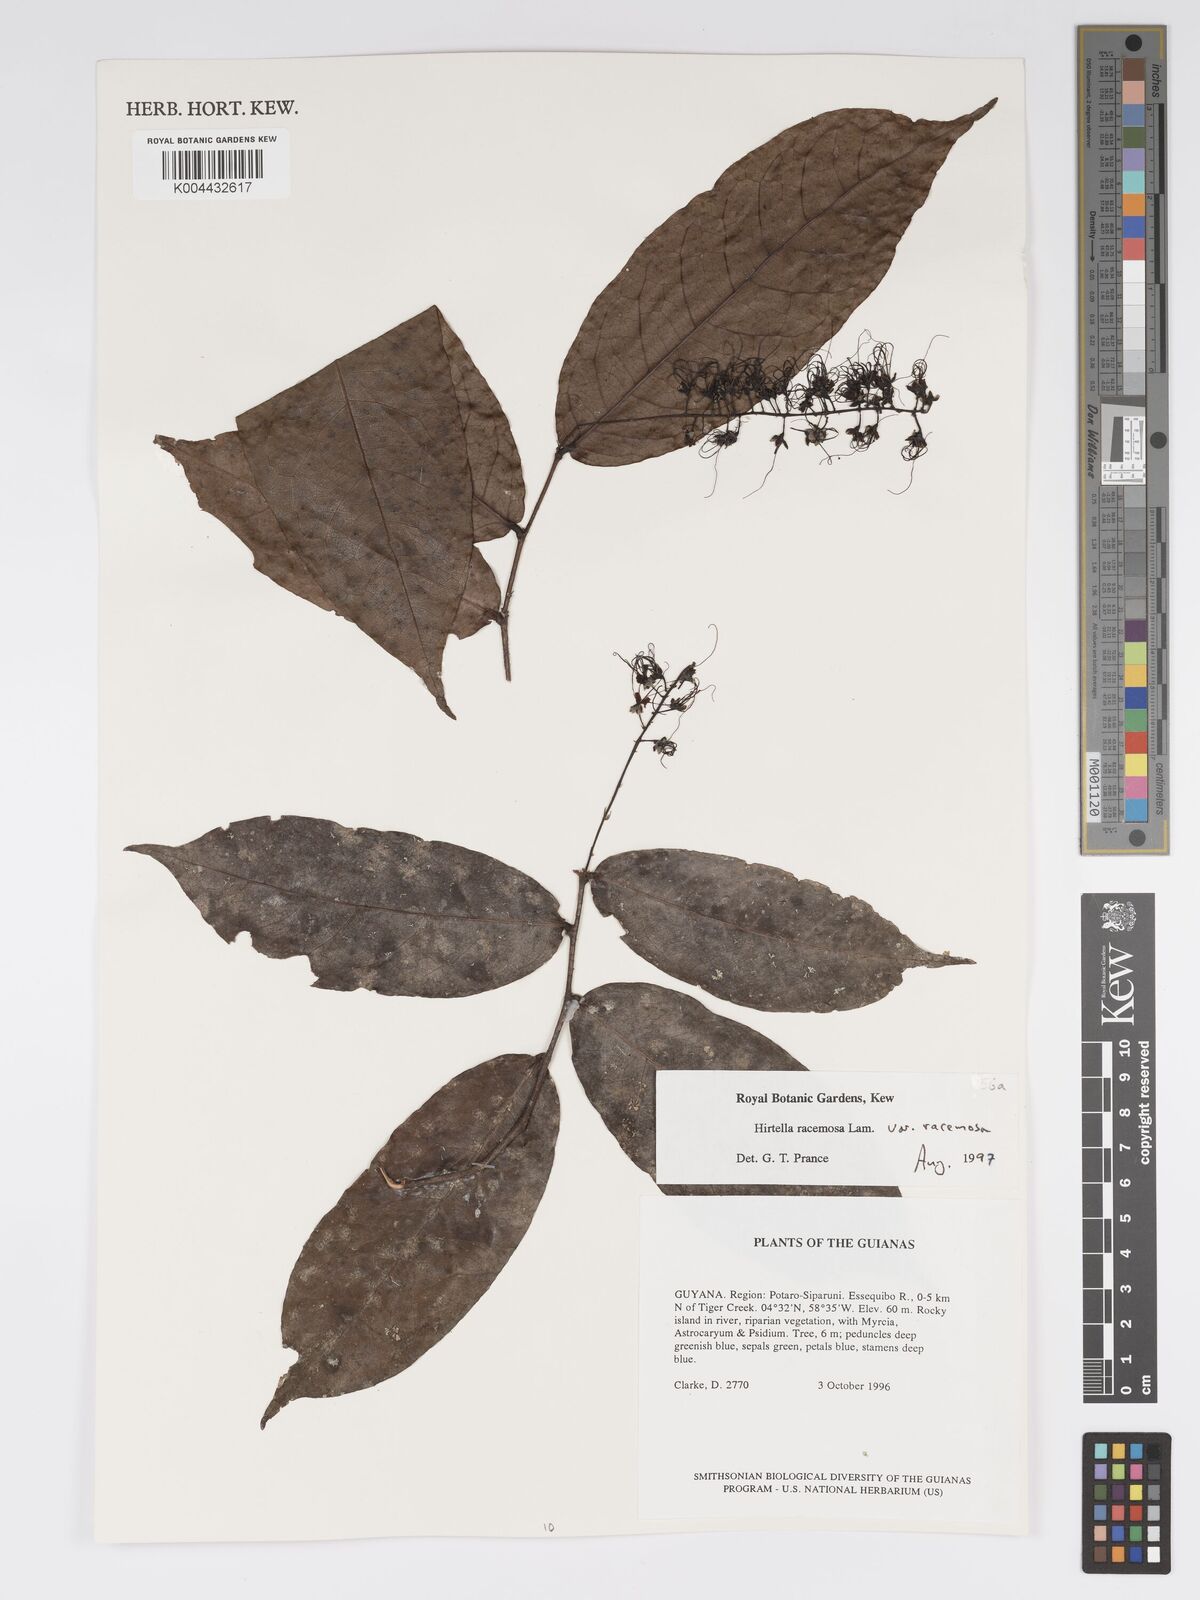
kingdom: Plantae
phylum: Tracheophyta
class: Magnoliopsida
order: Malpighiales
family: Chrysobalanaceae
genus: Hirtella
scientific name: Hirtella racemosa
